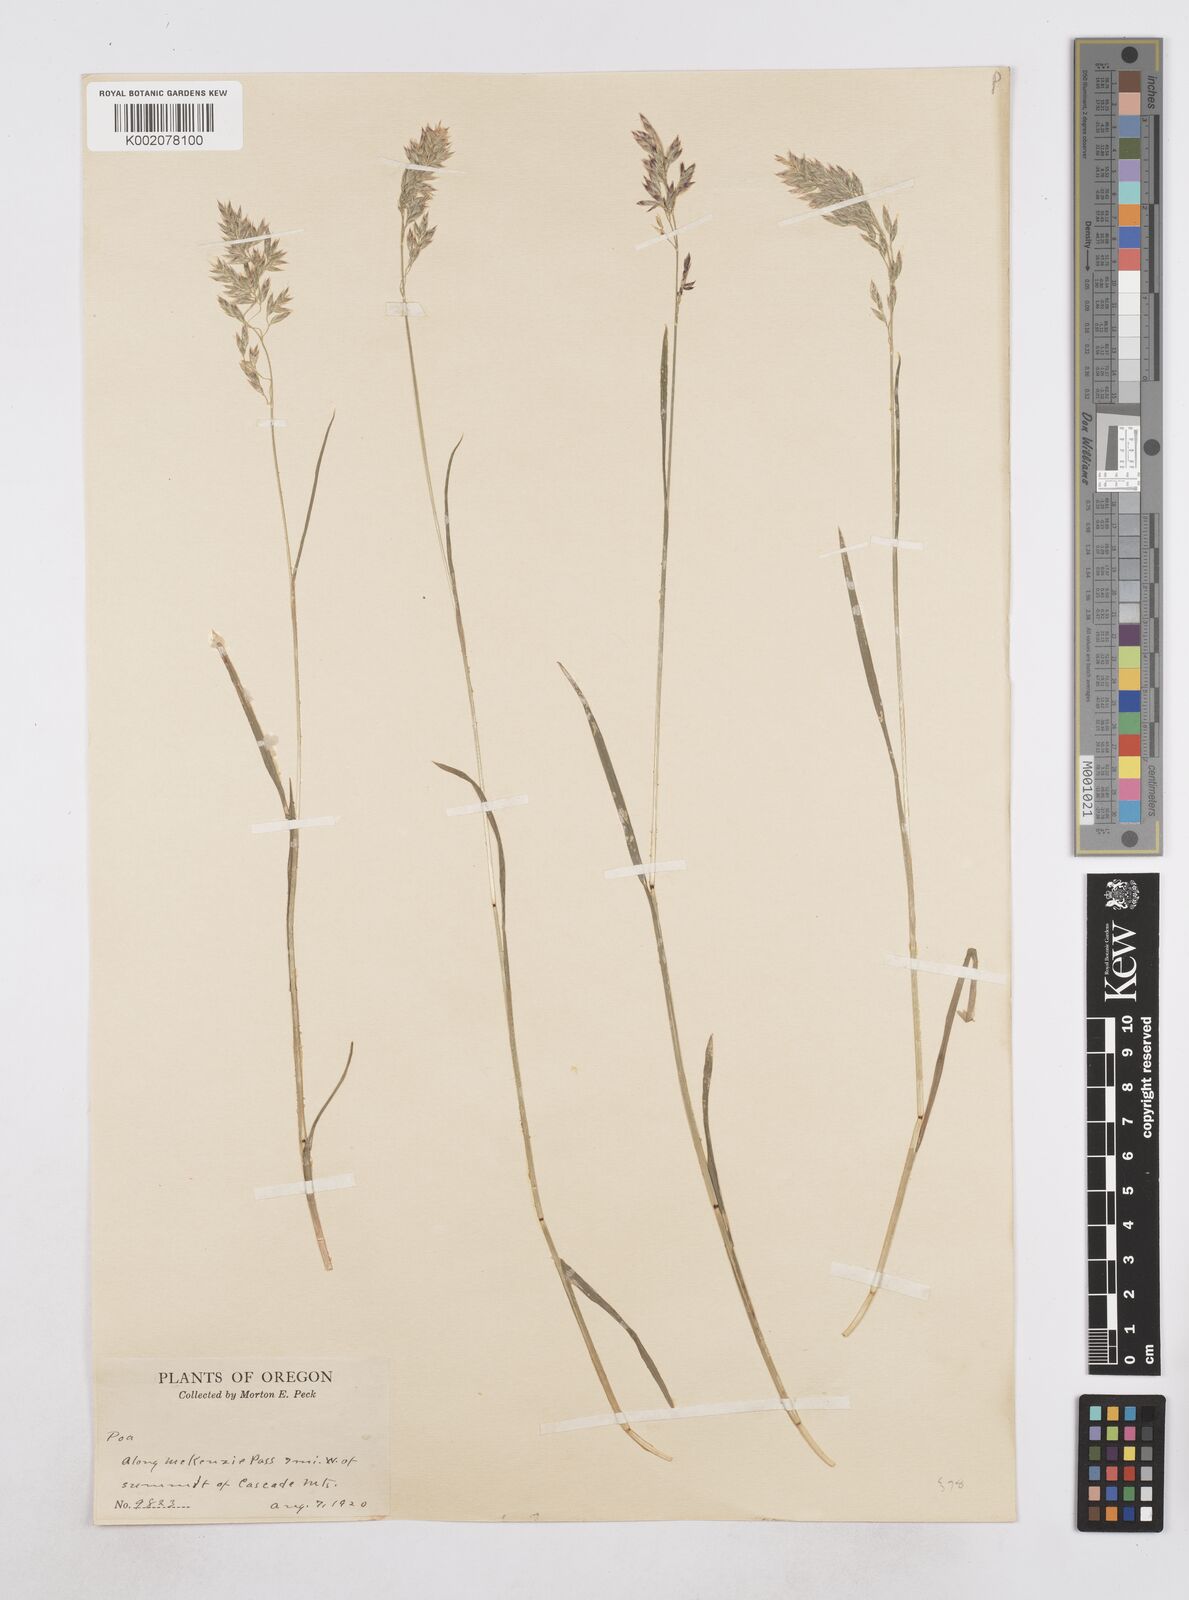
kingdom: Plantae
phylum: Tracheophyta
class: Liliopsida
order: Poales
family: Poaceae
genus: Poa
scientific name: Poa
